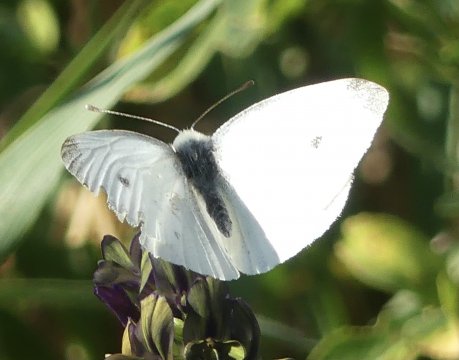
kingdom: Animalia
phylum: Arthropoda
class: Insecta
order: Lepidoptera
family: Pieridae
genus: Pieris
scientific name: Pieris rapae
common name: Cabbage White
